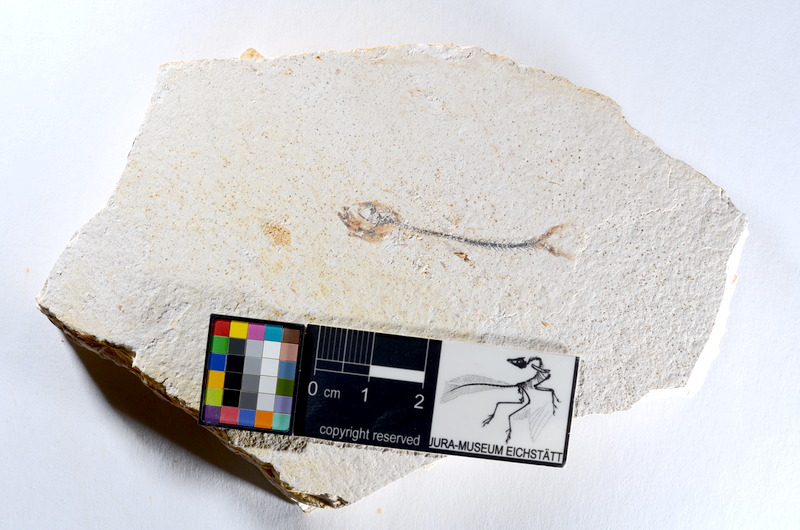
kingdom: Animalia
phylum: Chordata
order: Salmoniformes
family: Orthogonikleithridae
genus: Orthogonikleithrus
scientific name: Orthogonikleithrus hoelli
